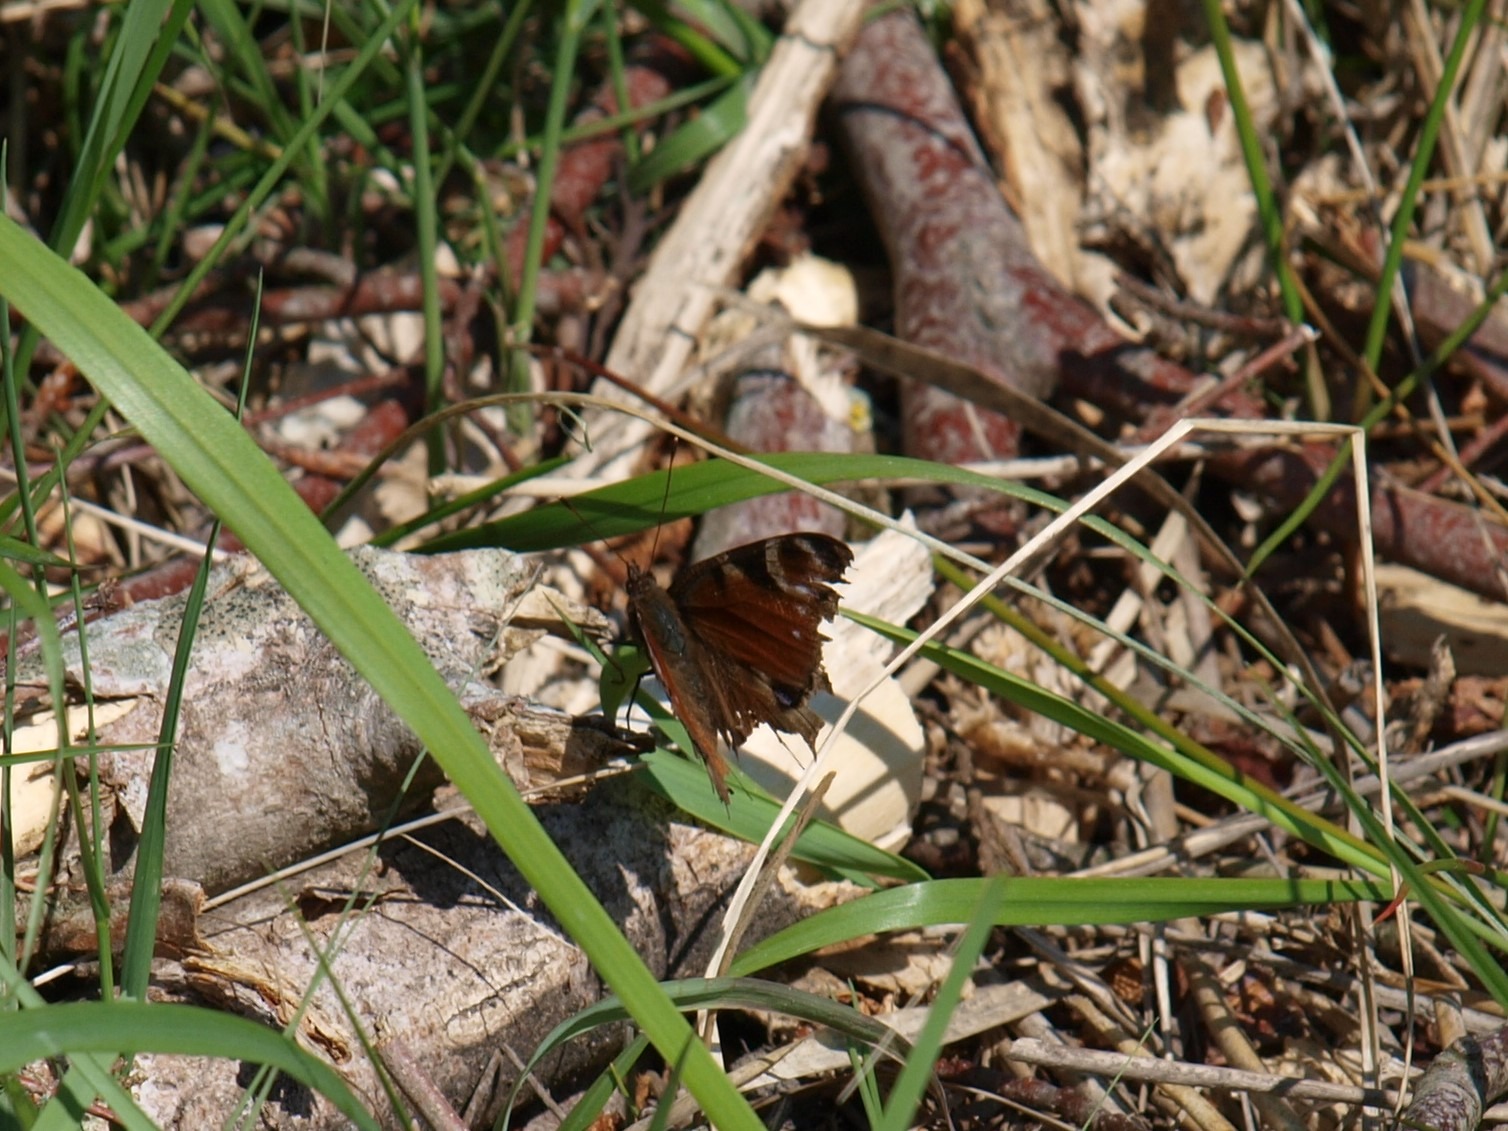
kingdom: Animalia
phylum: Arthropoda
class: Insecta
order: Lepidoptera
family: Nymphalidae
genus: Aglais
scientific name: Aglais io
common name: Dagpåfugleøje
